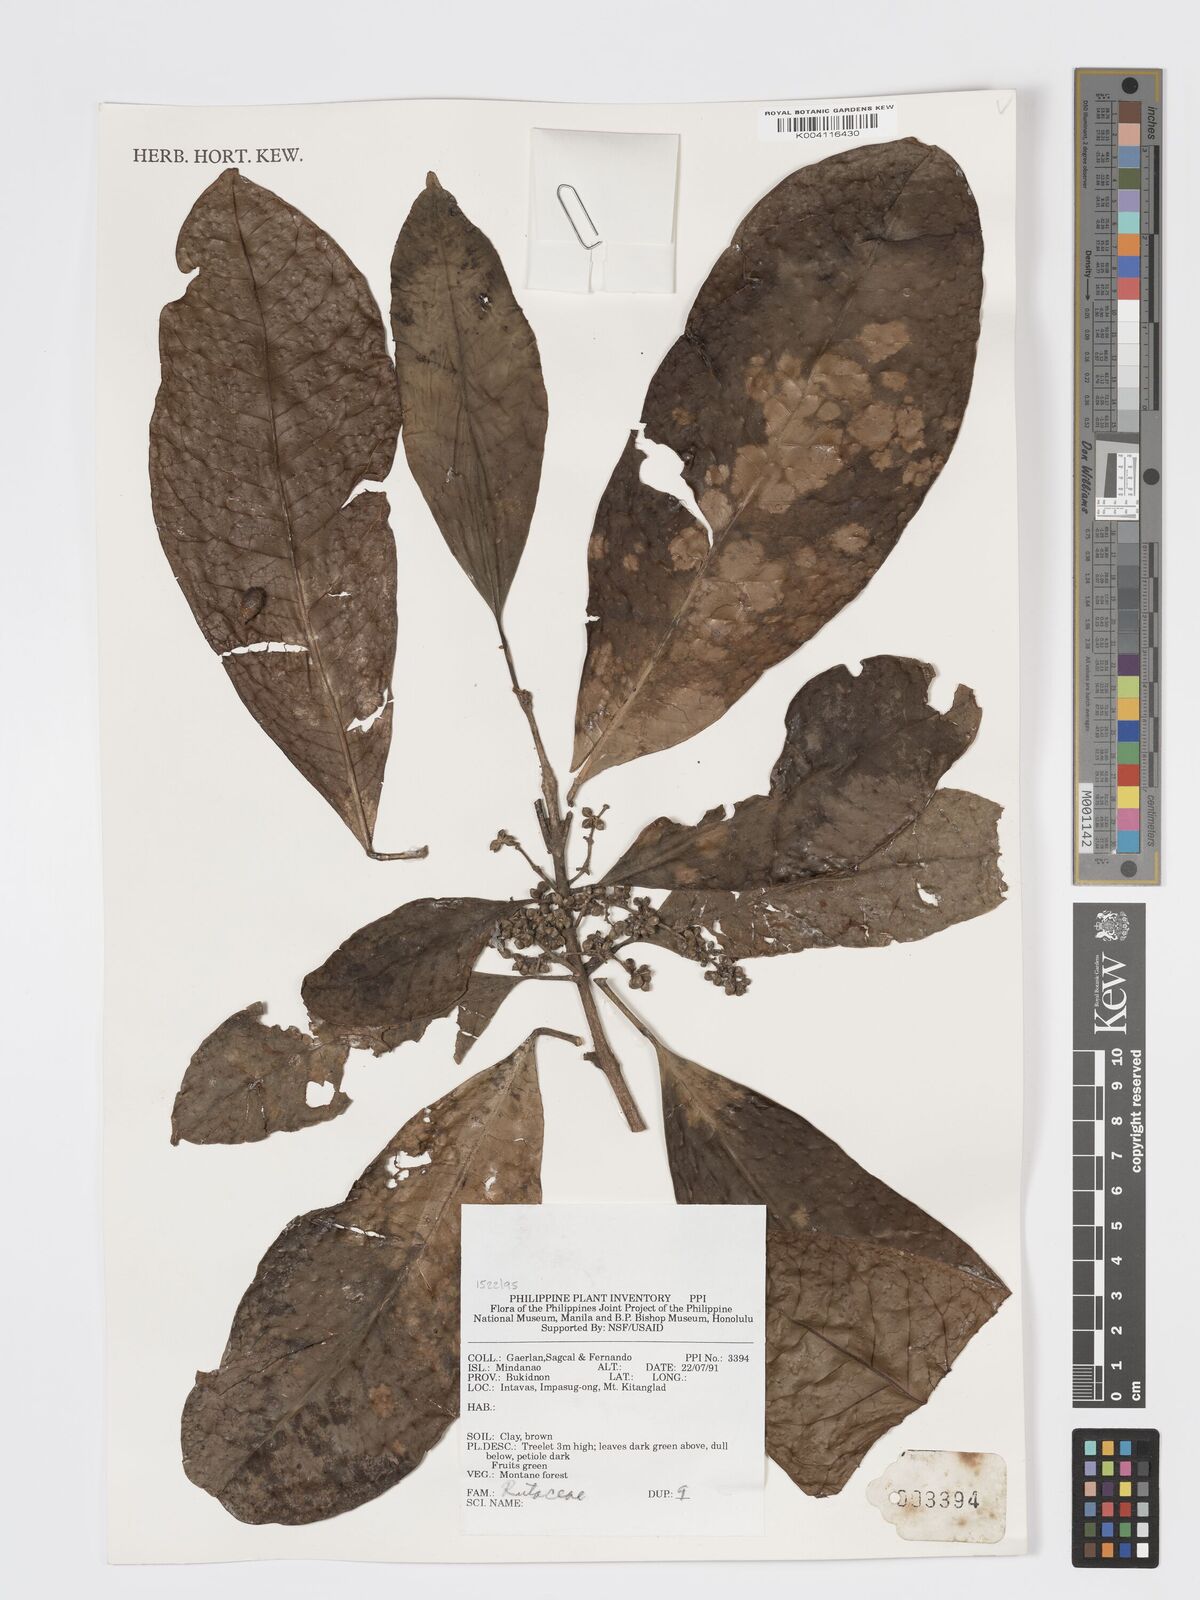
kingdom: Plantae
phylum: Tracheophyta
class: Magnoliopsida
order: Sapindales
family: Rutaceae
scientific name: Rutaceae
